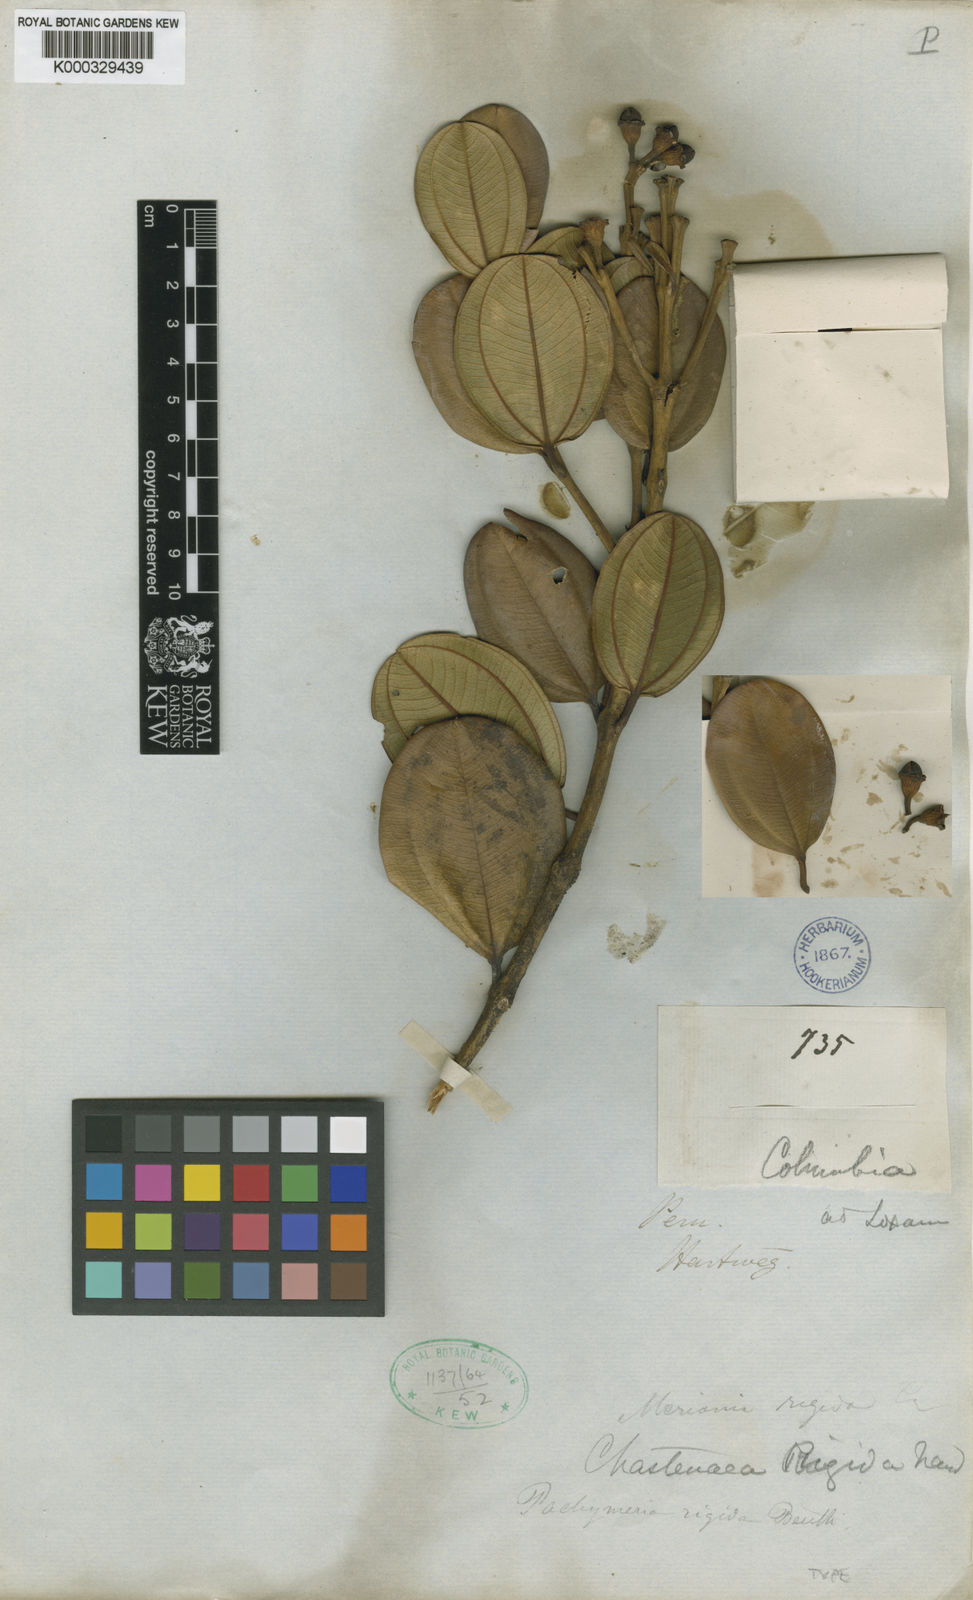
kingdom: Plantae
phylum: Tracheophyta
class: Magnoliopsida
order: Myrtales
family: Melastomataceae
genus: Meriania
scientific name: Meriania rigida
